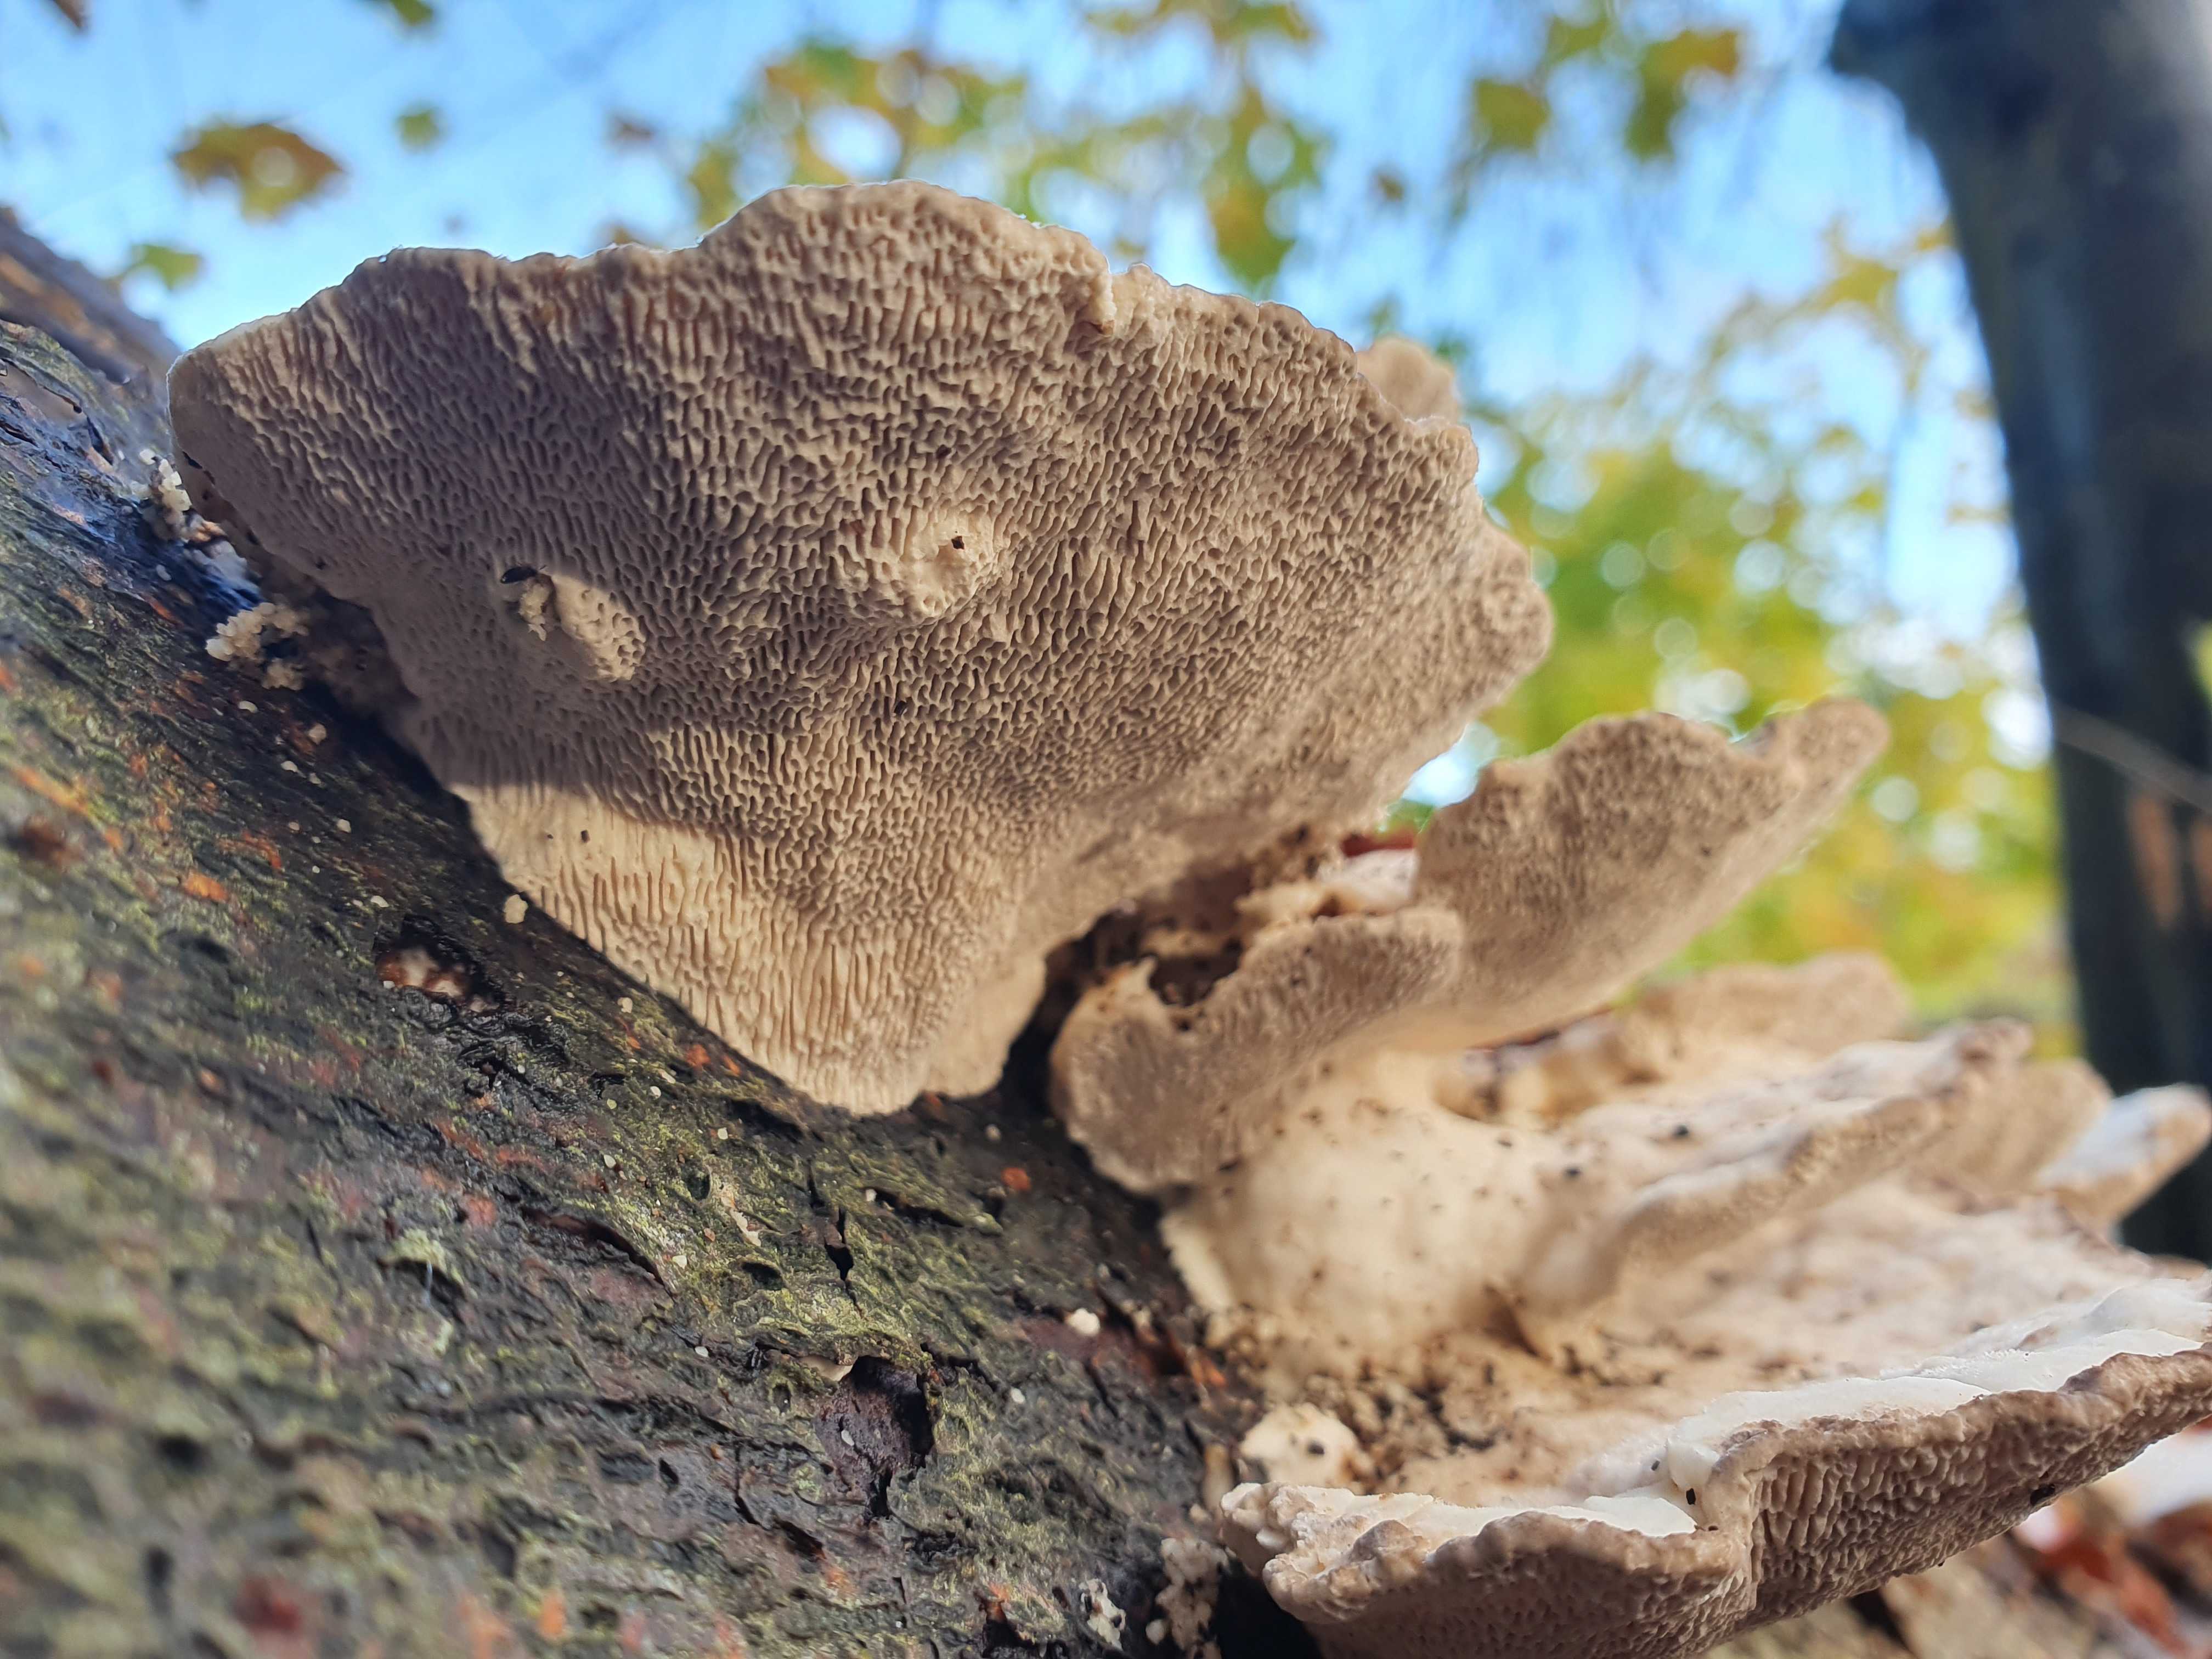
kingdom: Fungi
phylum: Basidiomycota
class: Agaricomycetes
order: Polyporales
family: Polyporaceae
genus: Trametes
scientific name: Trametes gibbosa
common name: puklet læderporesvamp
